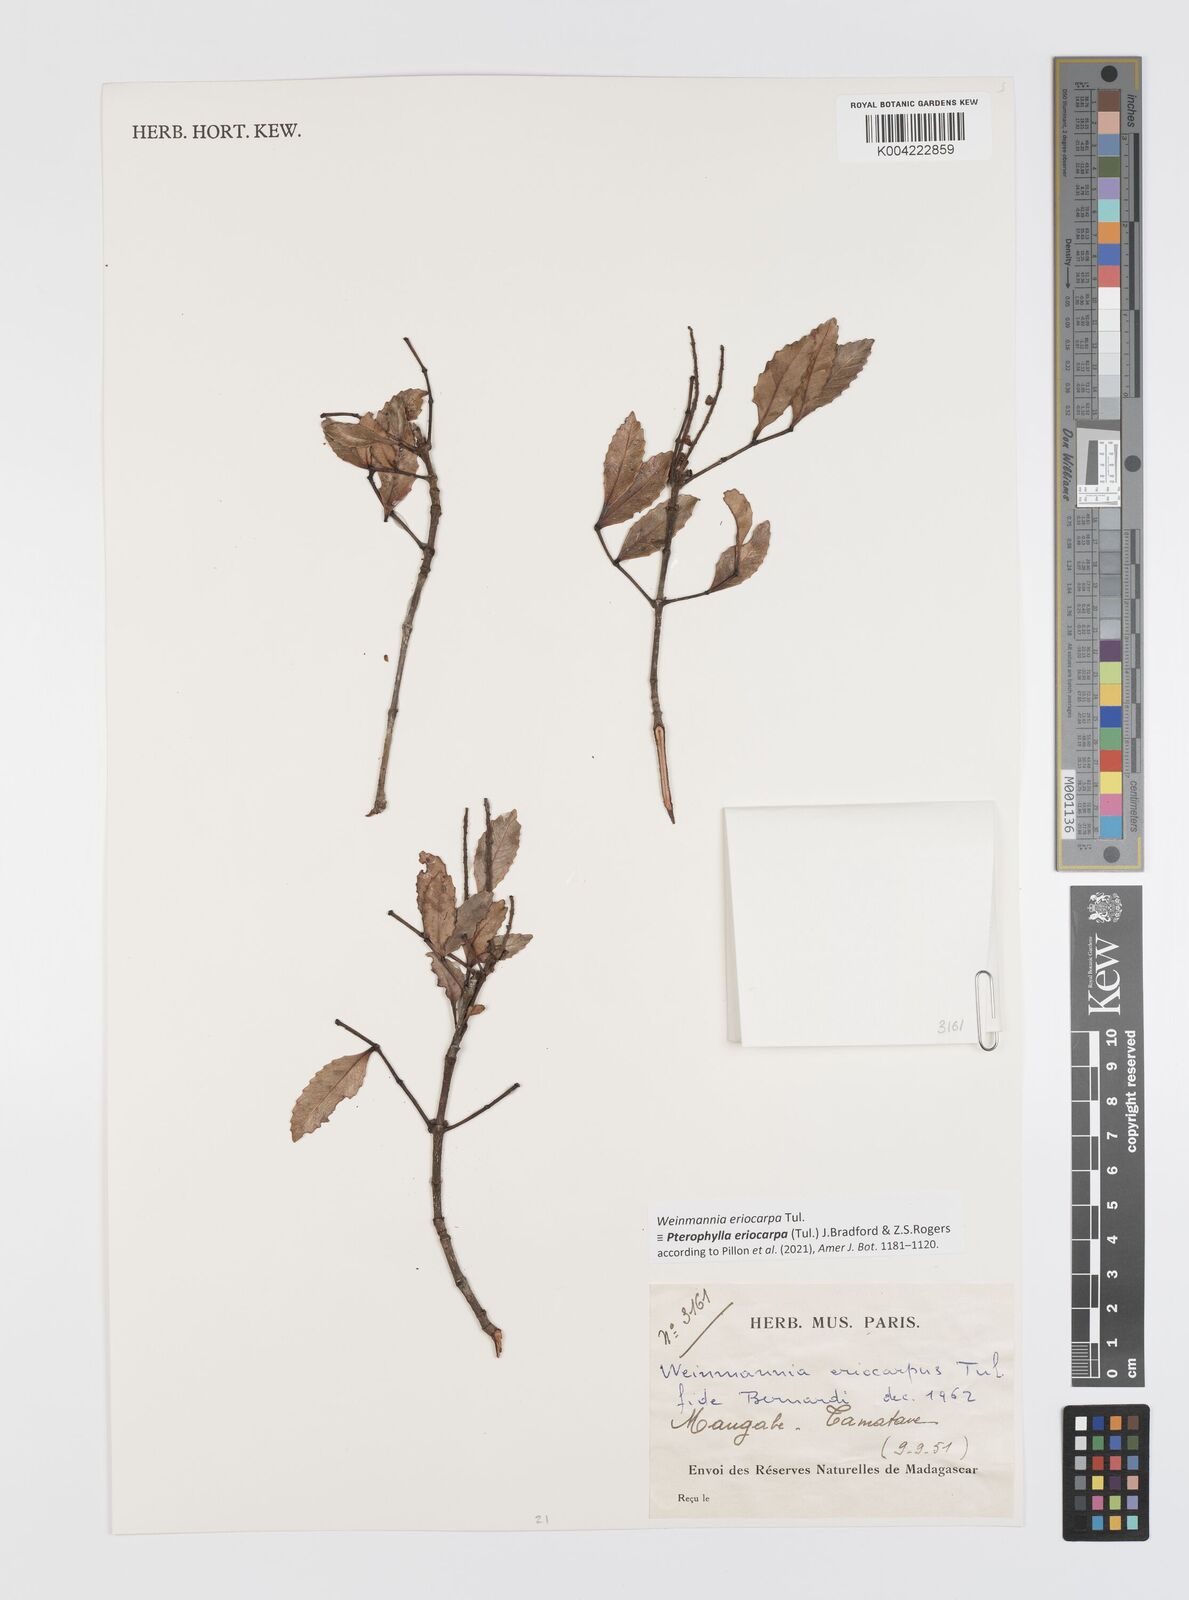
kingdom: Plantae
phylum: Tracheophyta
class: Magnoliopsida
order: Oxalidales
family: Cunoniaceae
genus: Pterophylla
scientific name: Pterophylla eriocarpa
